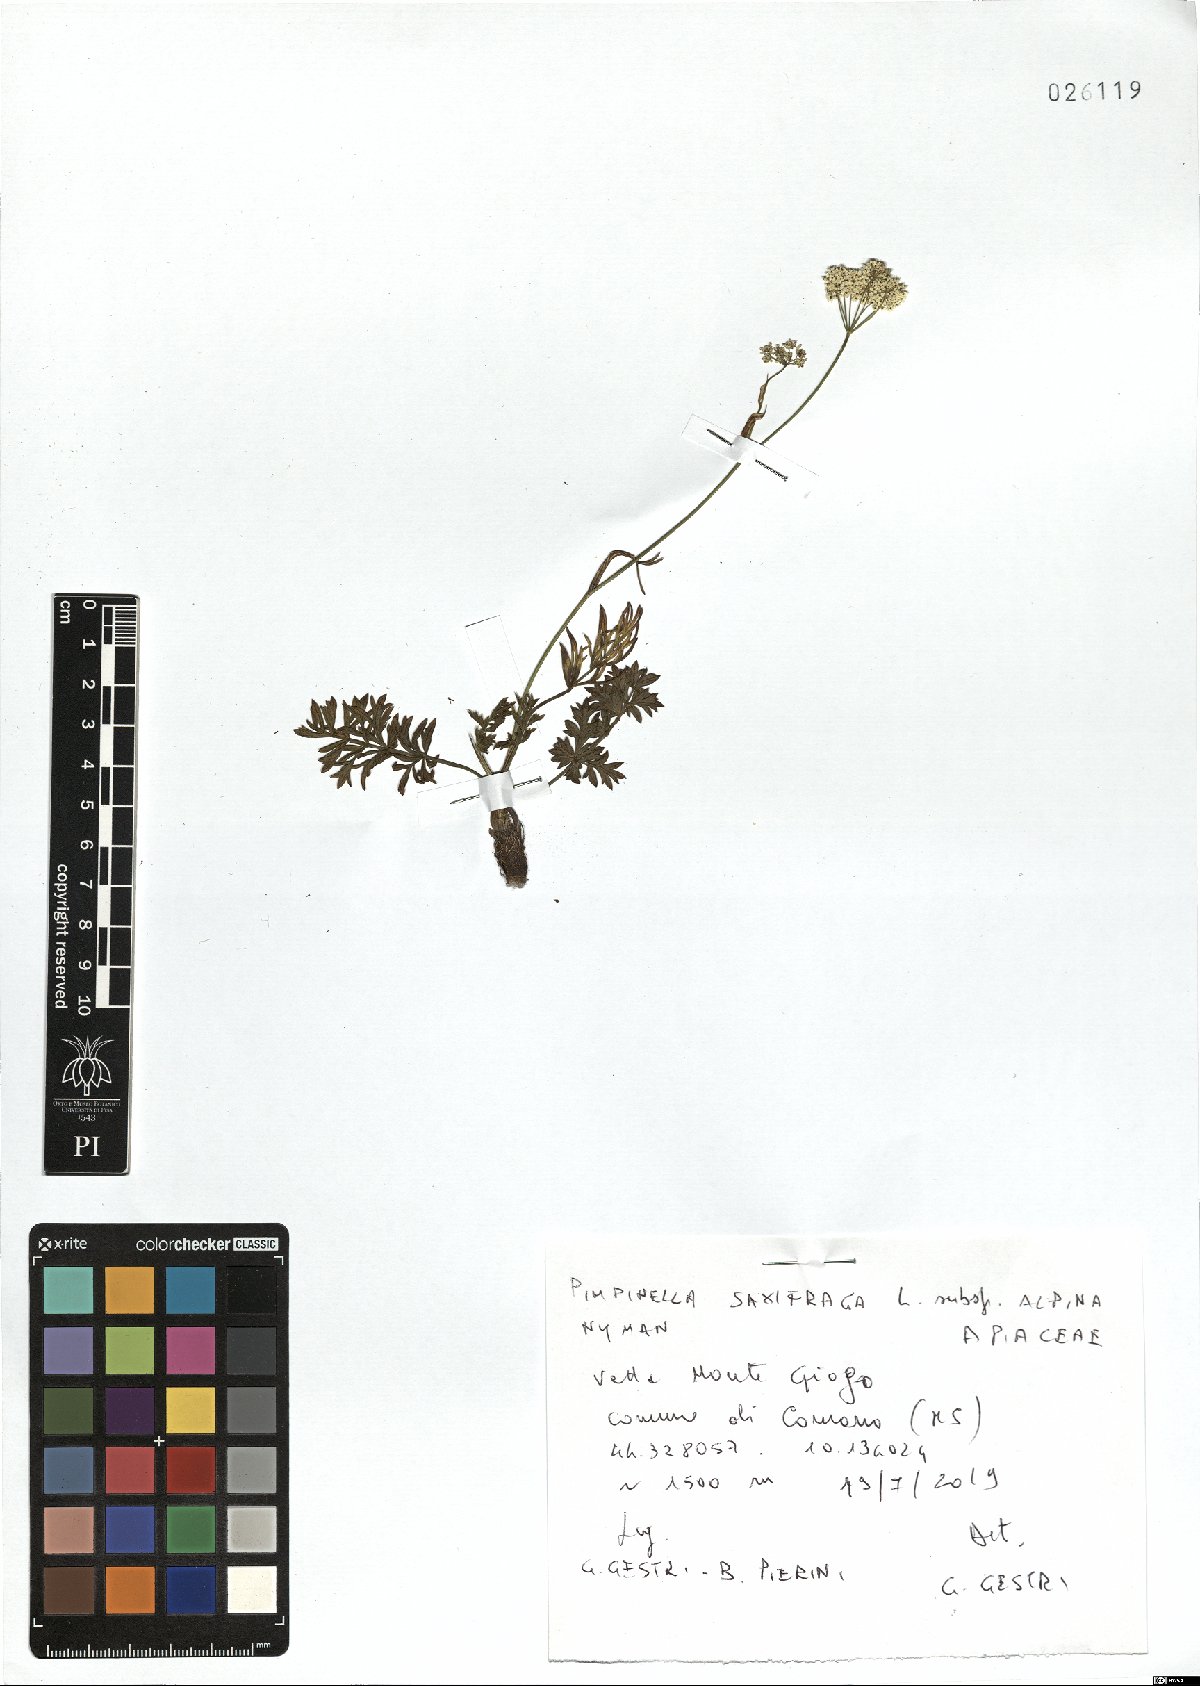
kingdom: Plantae
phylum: Tracheophyta
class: Magnoliopsida
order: Apiales
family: Apiaceae
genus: Pimpinella
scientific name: Pimpinella alpina
